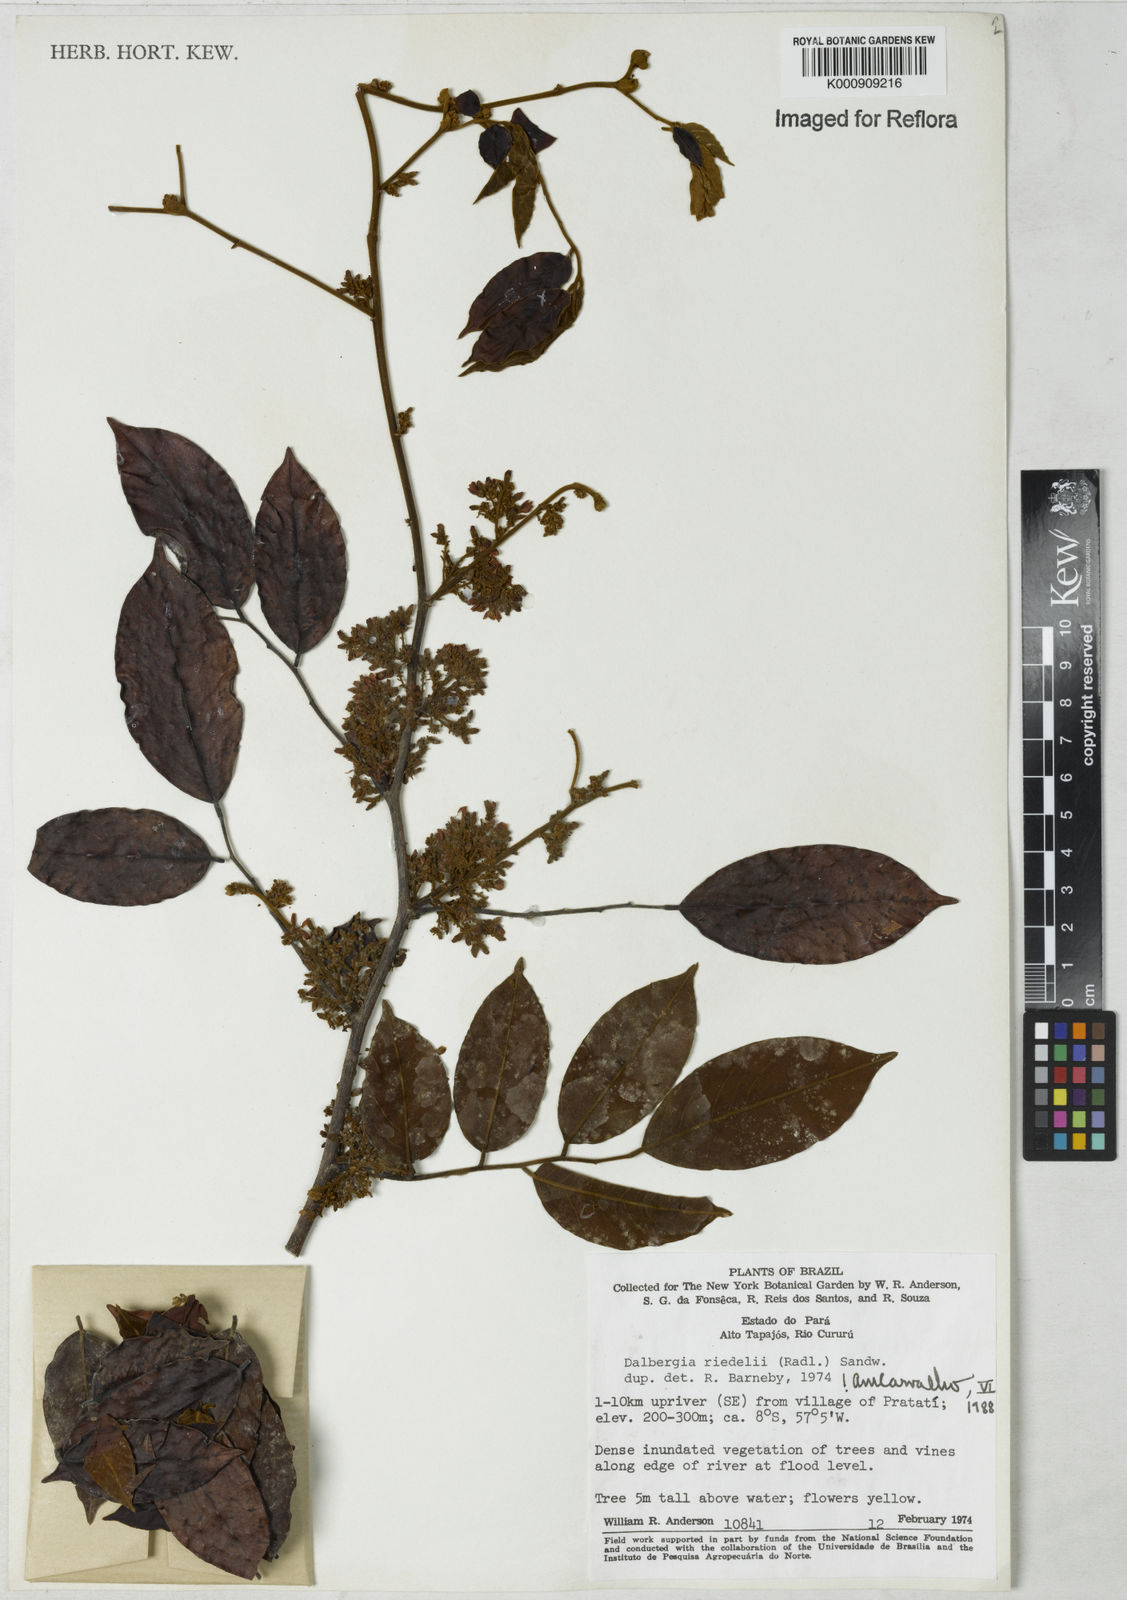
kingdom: Plantae
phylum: Tracheophyta
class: Magnoliopsida
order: Fabales
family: Fabaceae
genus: Dalbergia
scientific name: Dalbergia riedelii
